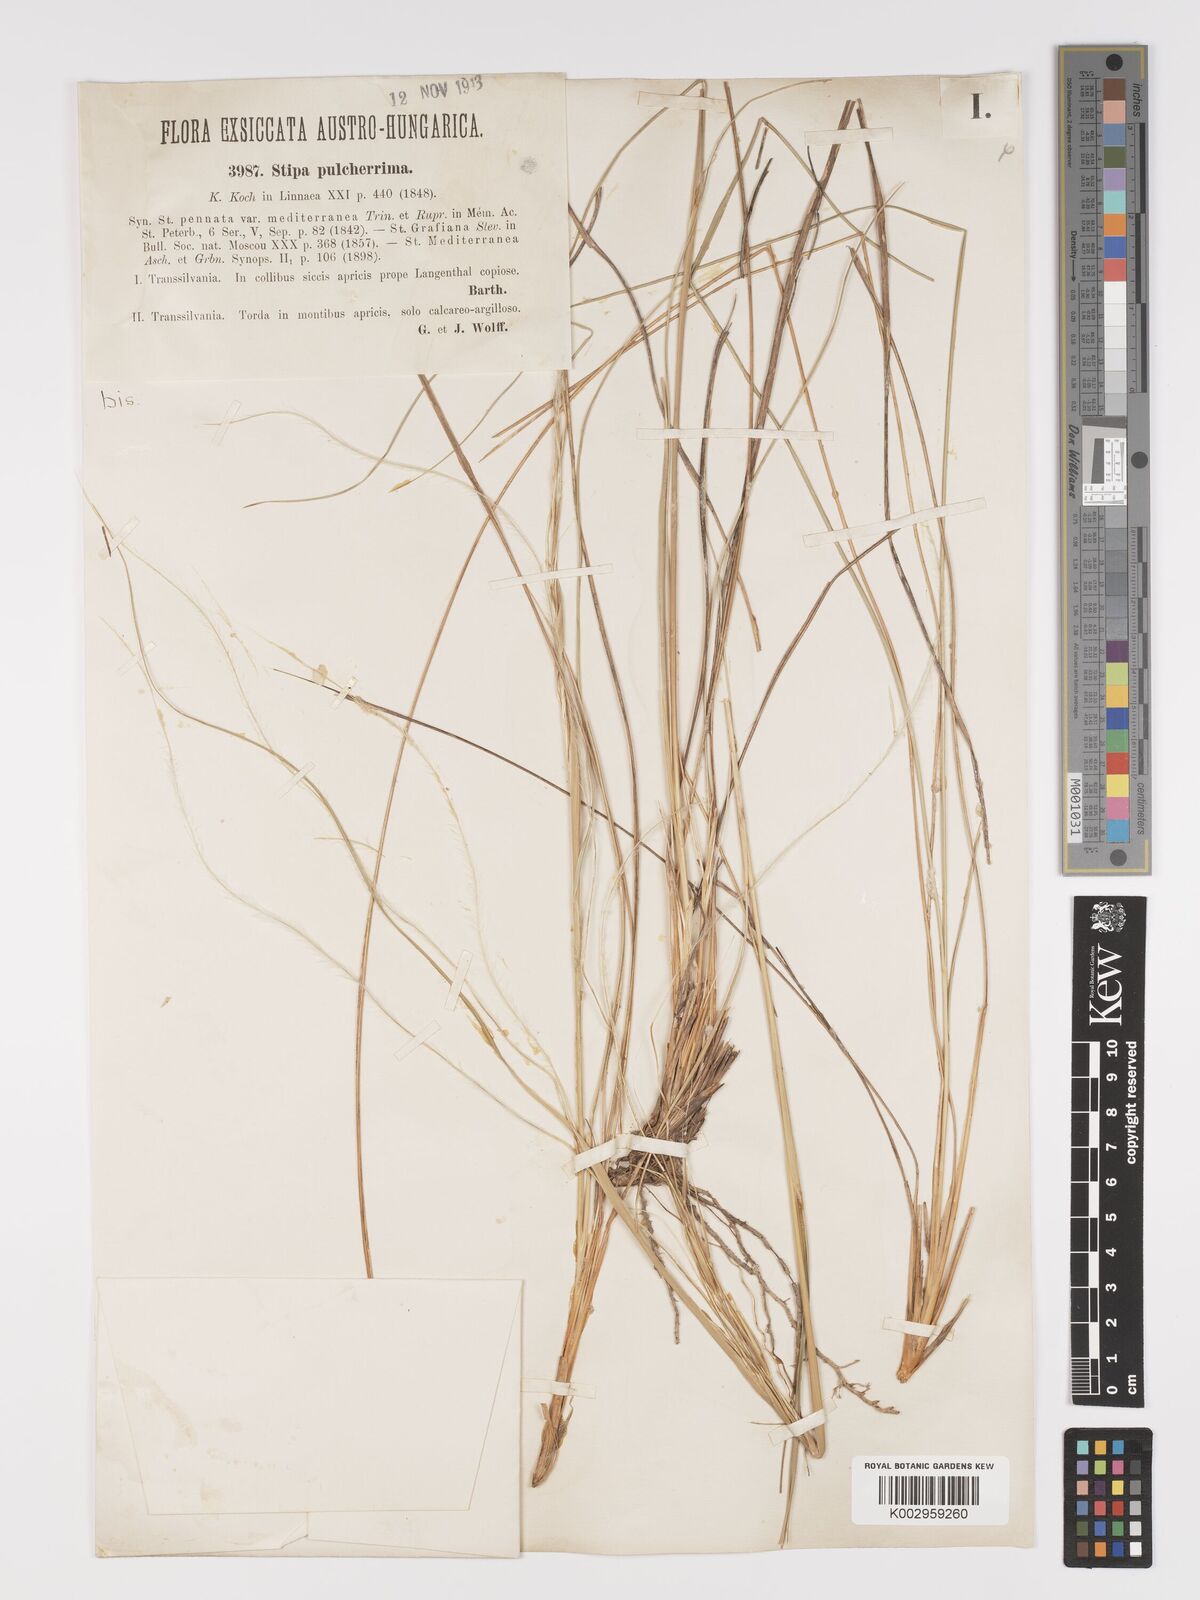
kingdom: Plantae
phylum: Tracheophyta
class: Liliopsida
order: Poales
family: Poaceae
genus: Stipa
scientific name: Stipa pulcherrima
